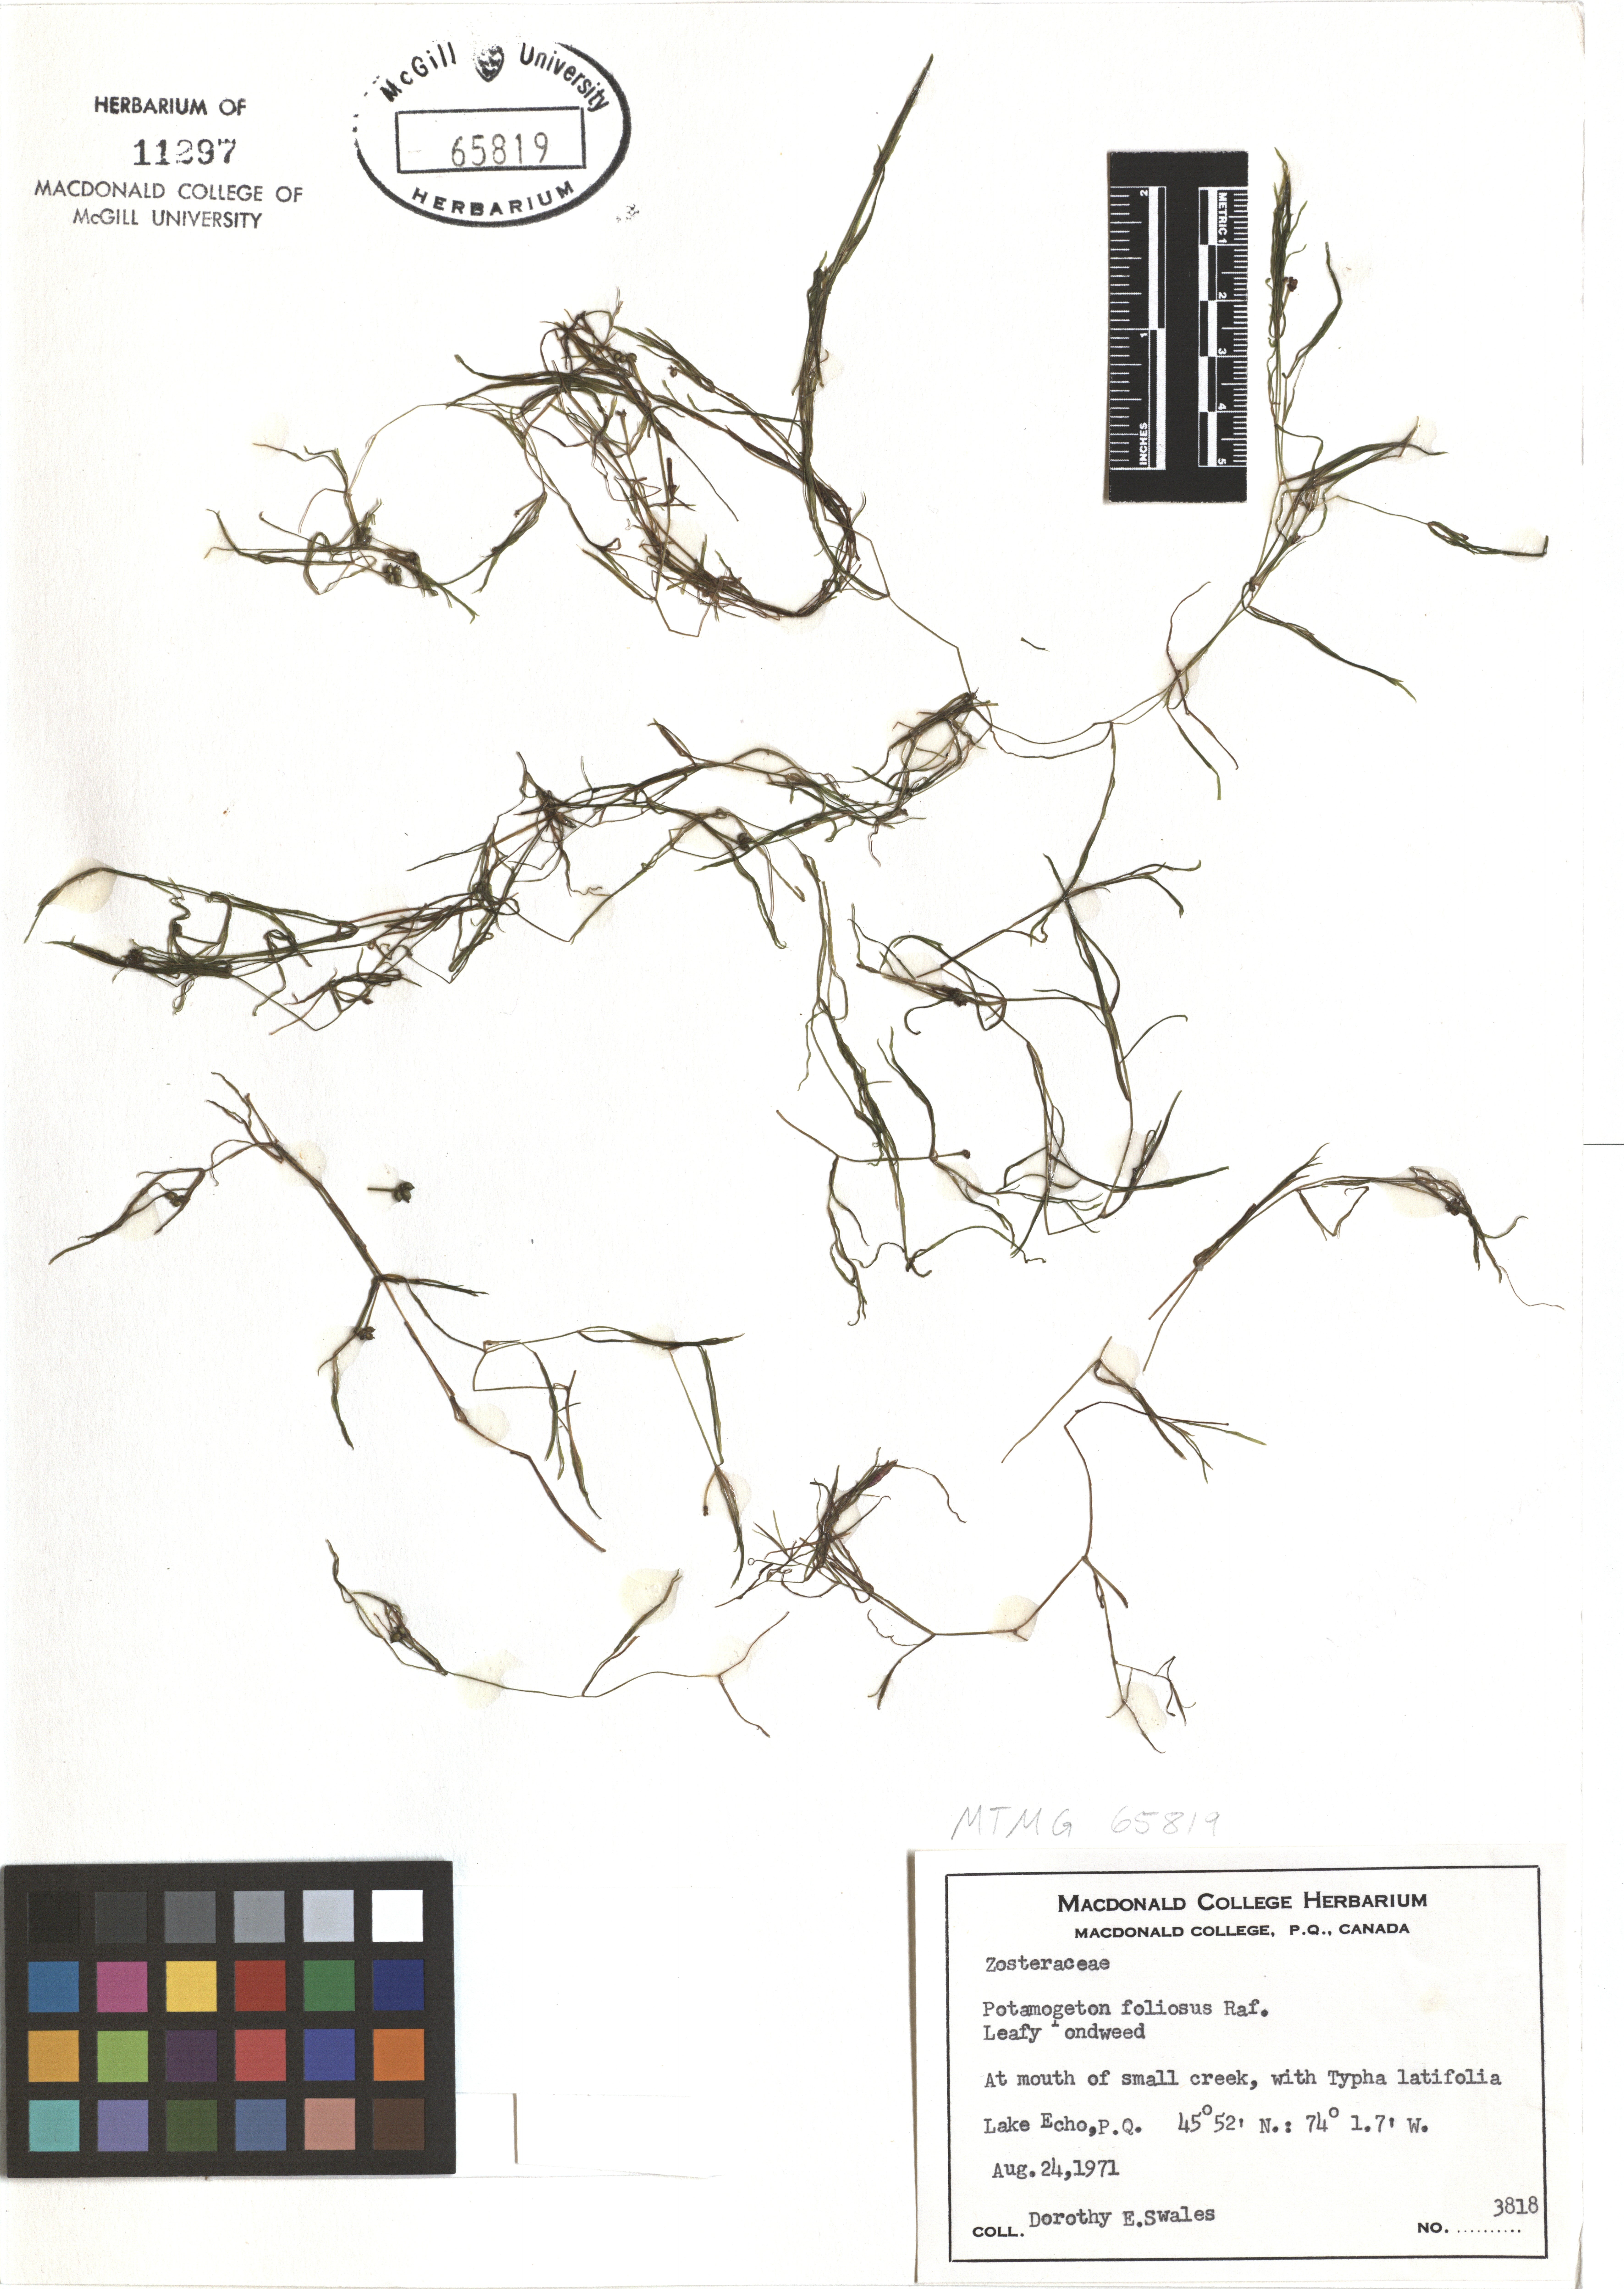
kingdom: Plantae
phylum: Tracheophyta
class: Liliopsida
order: Alismatales
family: Potamogetonaceae
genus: Potamogeton
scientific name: Potamogeton foliosus
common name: Leafy pondweed
